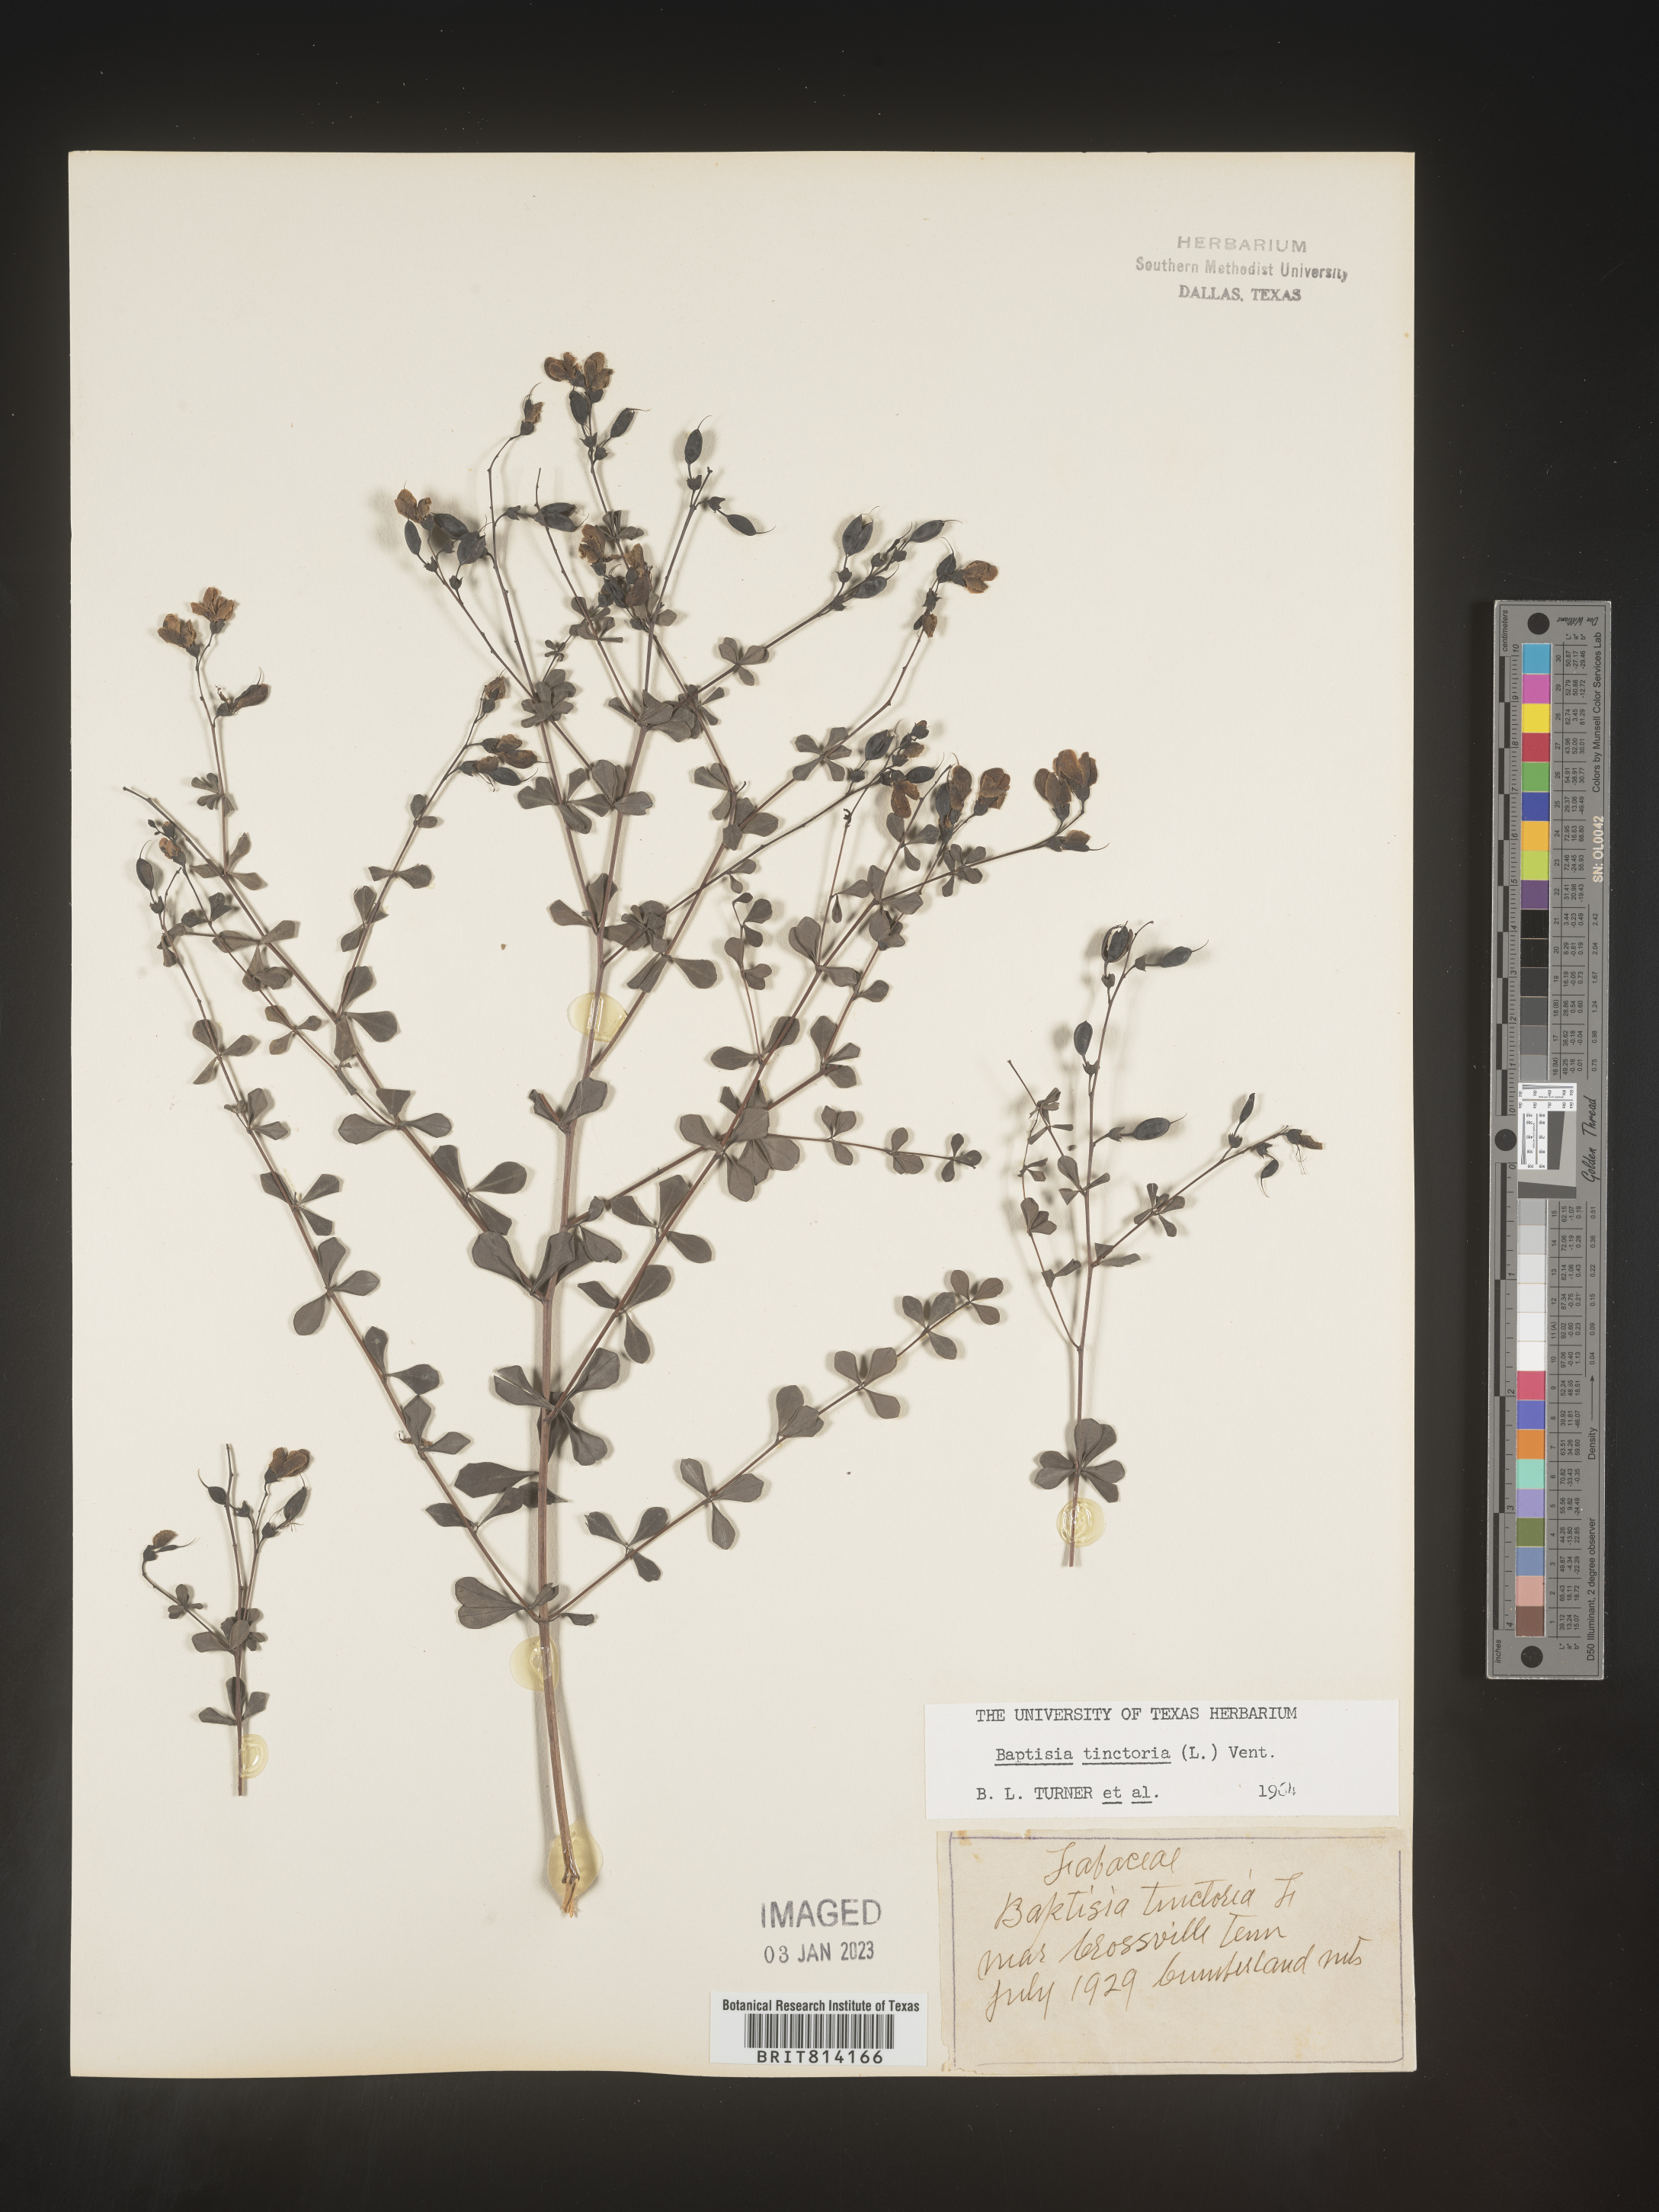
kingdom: Plantae
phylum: Tracheophyta
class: Magnoliopsida
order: Fabales
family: Fabaceae
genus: Baptisia
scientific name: Baptisia tinctoria
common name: Wild indigo
